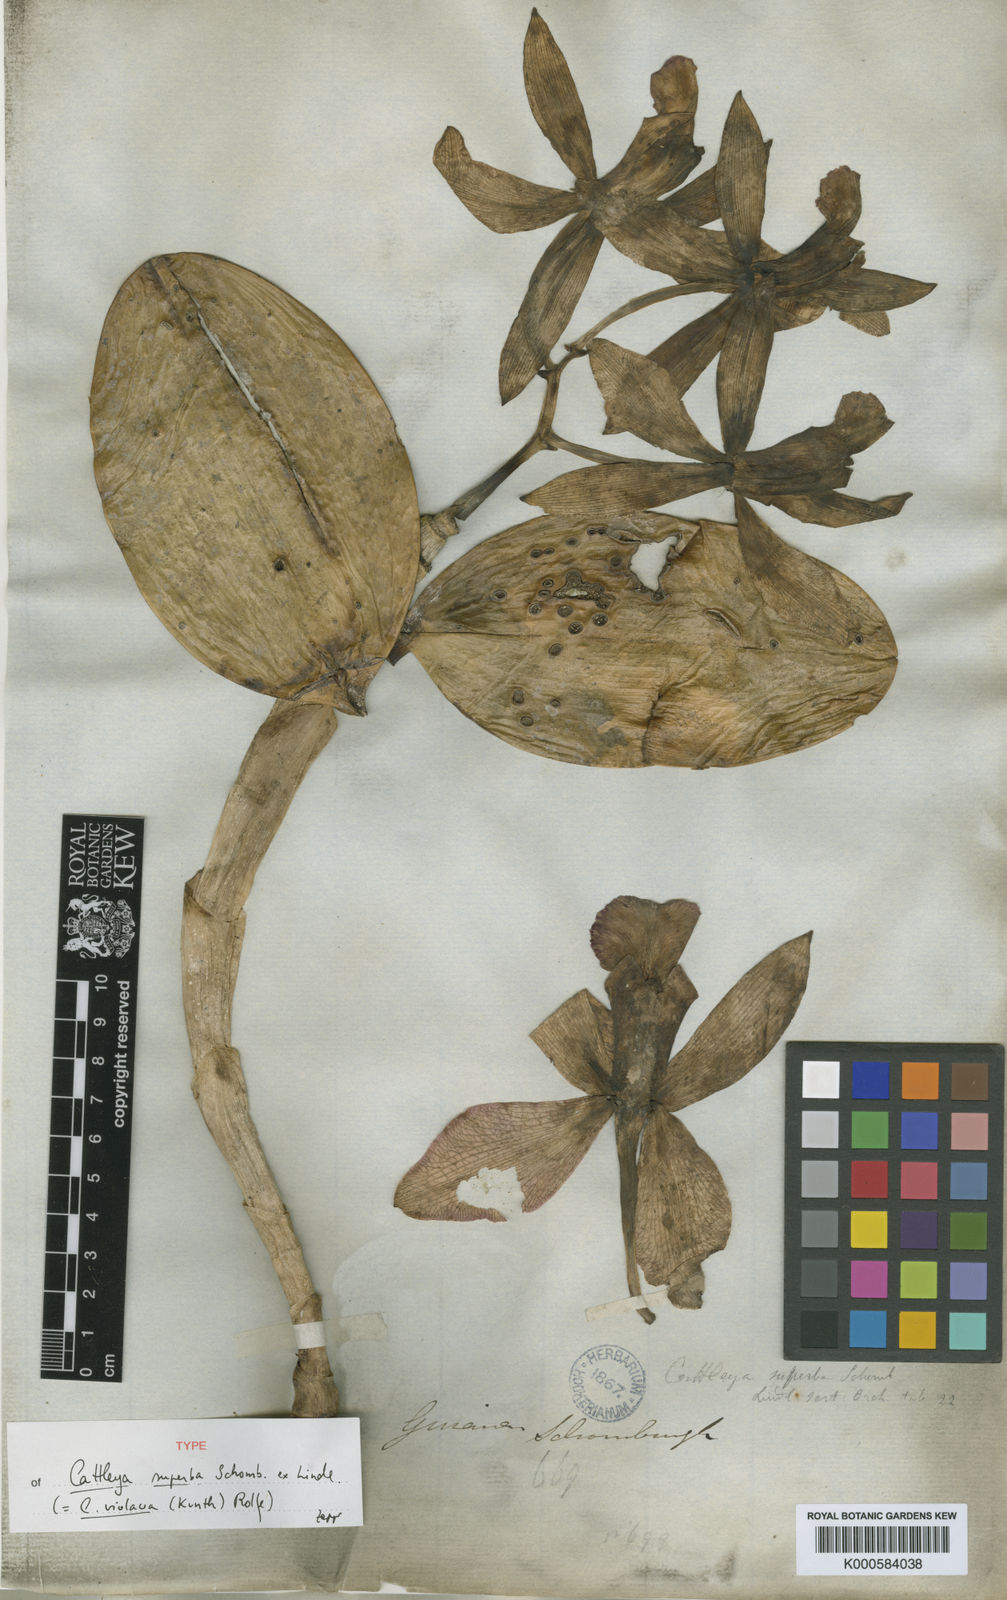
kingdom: Plantae
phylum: Tracheophyta
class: Liliopsida
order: Asparagales
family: Orchidaceae
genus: Cattleya
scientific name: Cattleya violacea
